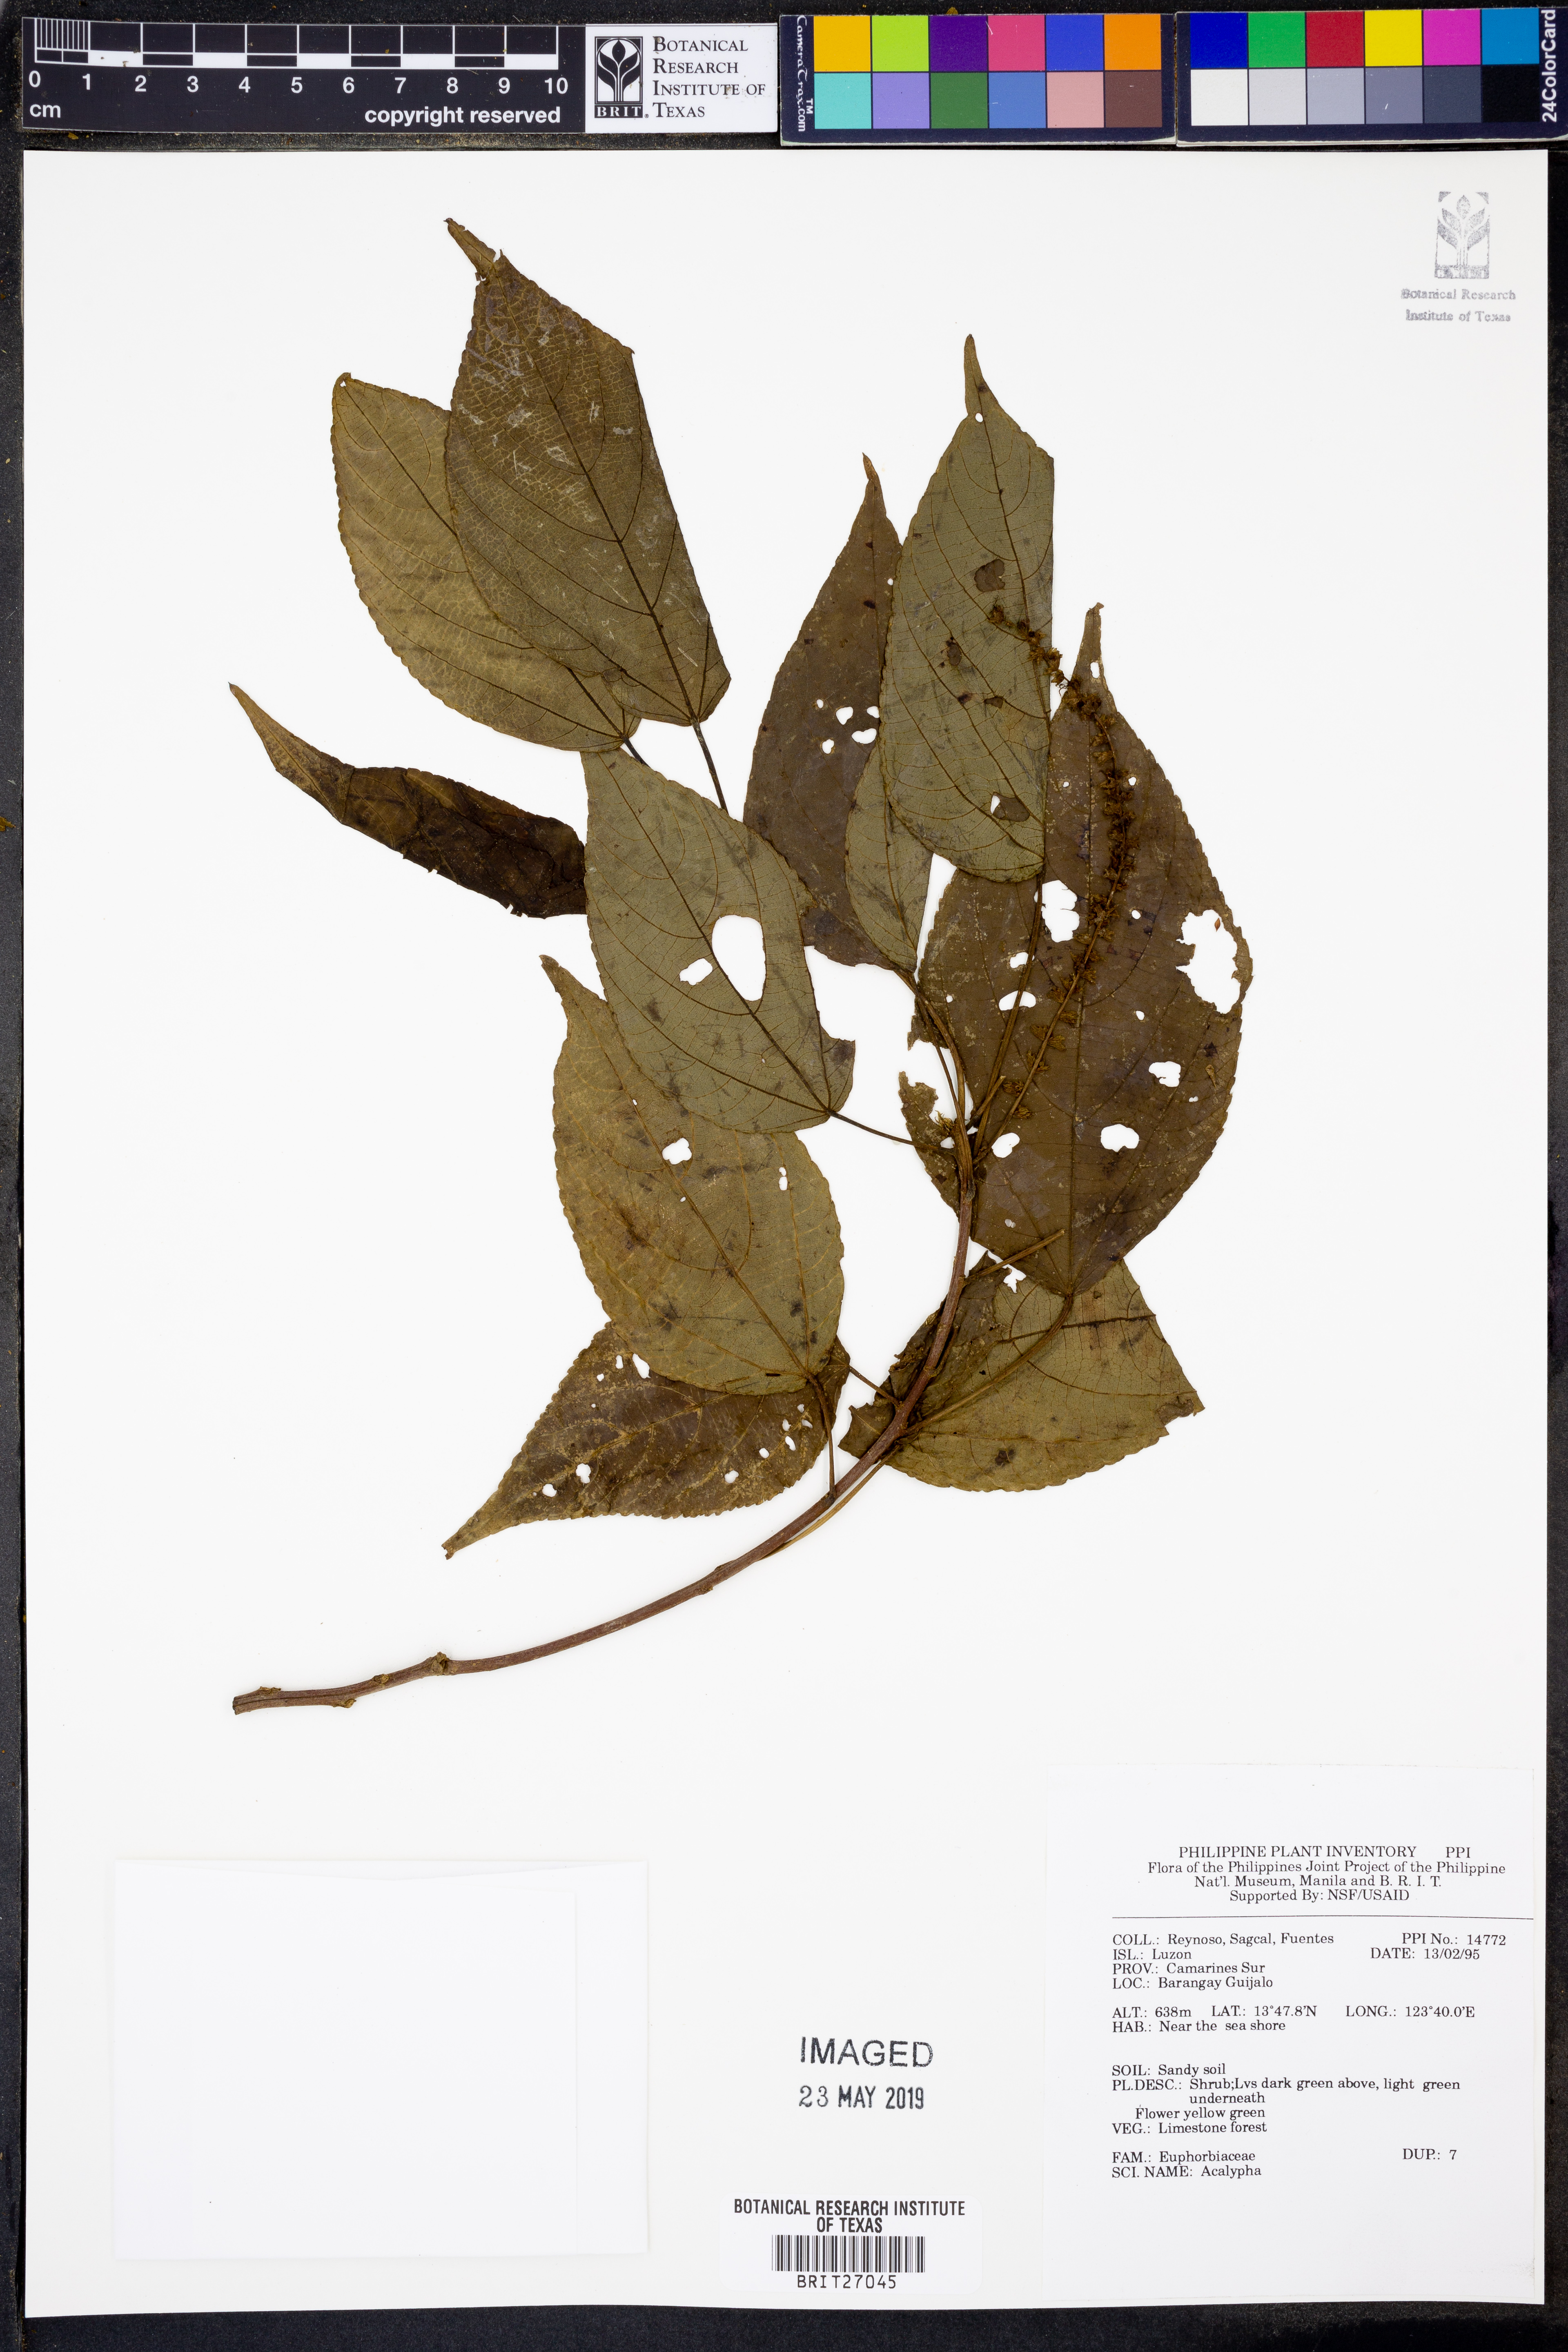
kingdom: Plantae
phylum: Tracheophyta
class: Magnoliopsida
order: Malpighiales
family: Euphorbiaceae
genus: Acalypha
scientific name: Acalypha
